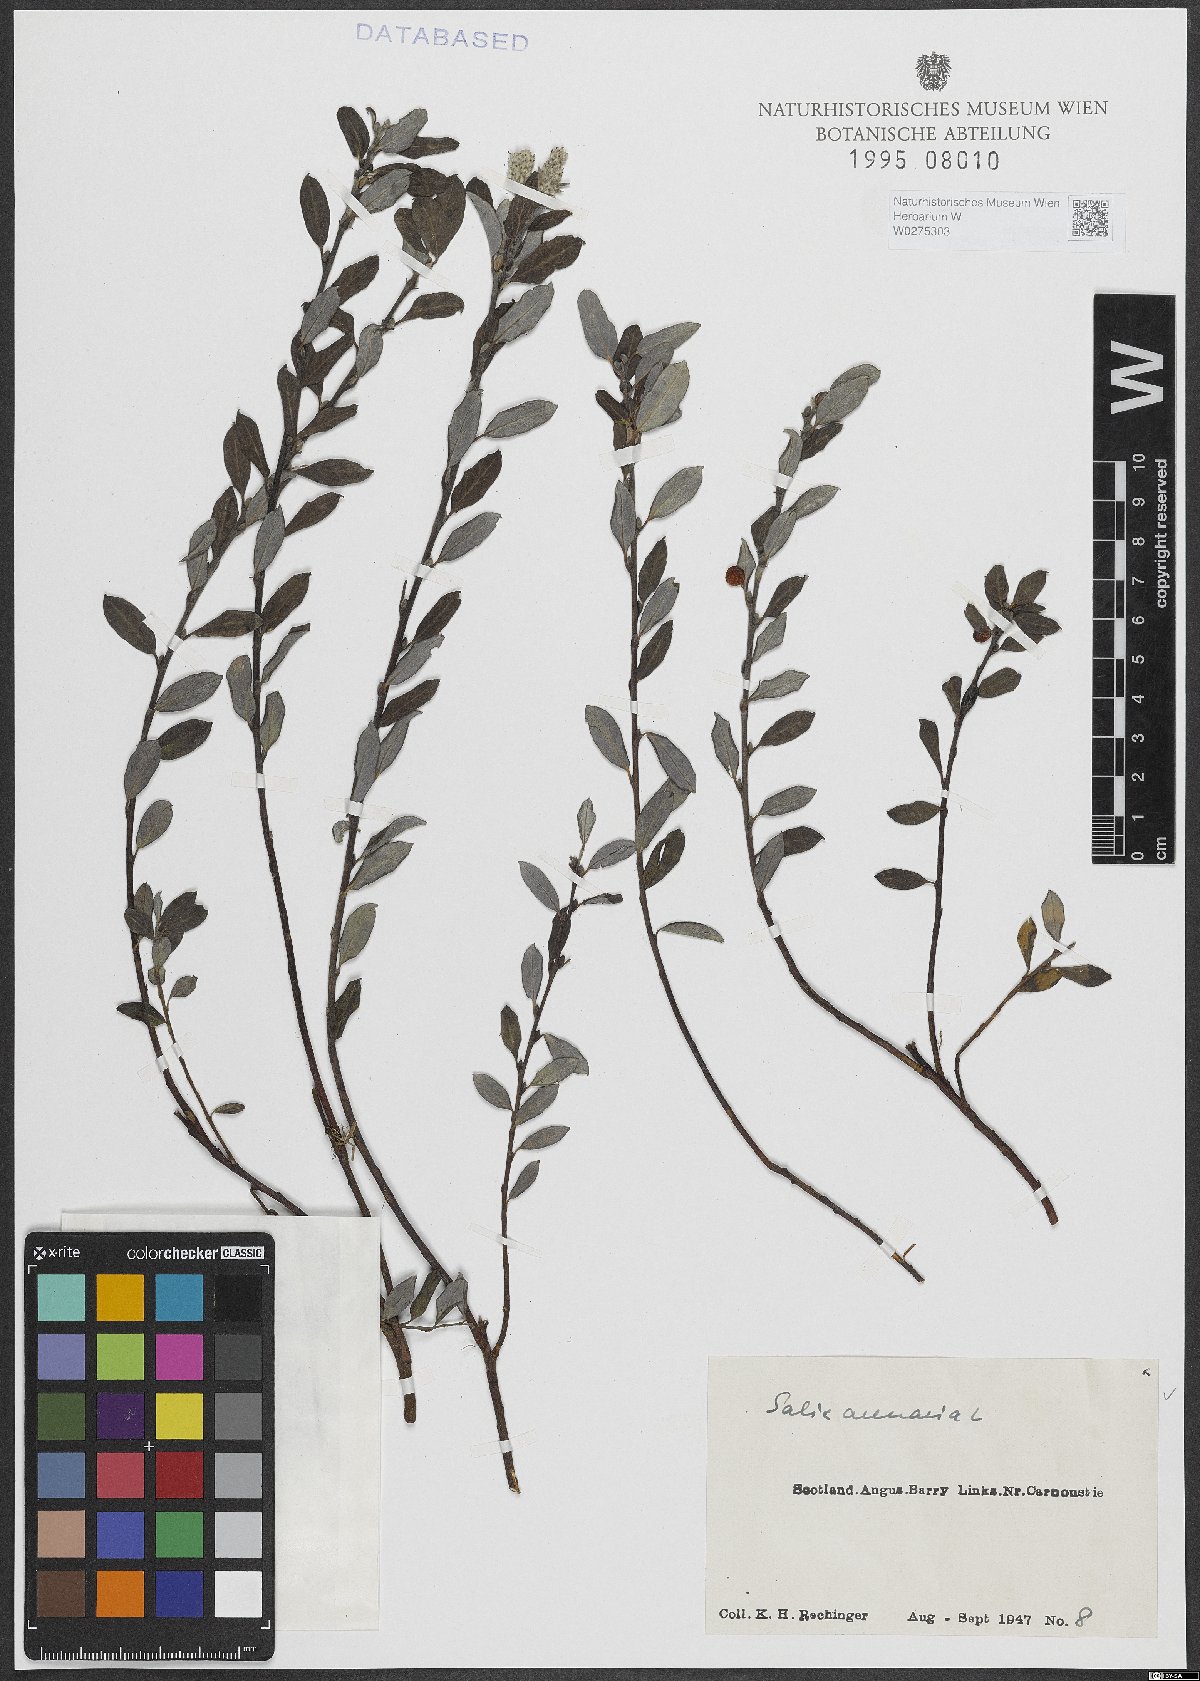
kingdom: Plantae
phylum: Tracheophyta
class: Magnoliopsida
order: Malpighiales
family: Salicaceae
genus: Salix
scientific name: Salix repens
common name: Creeping willow
